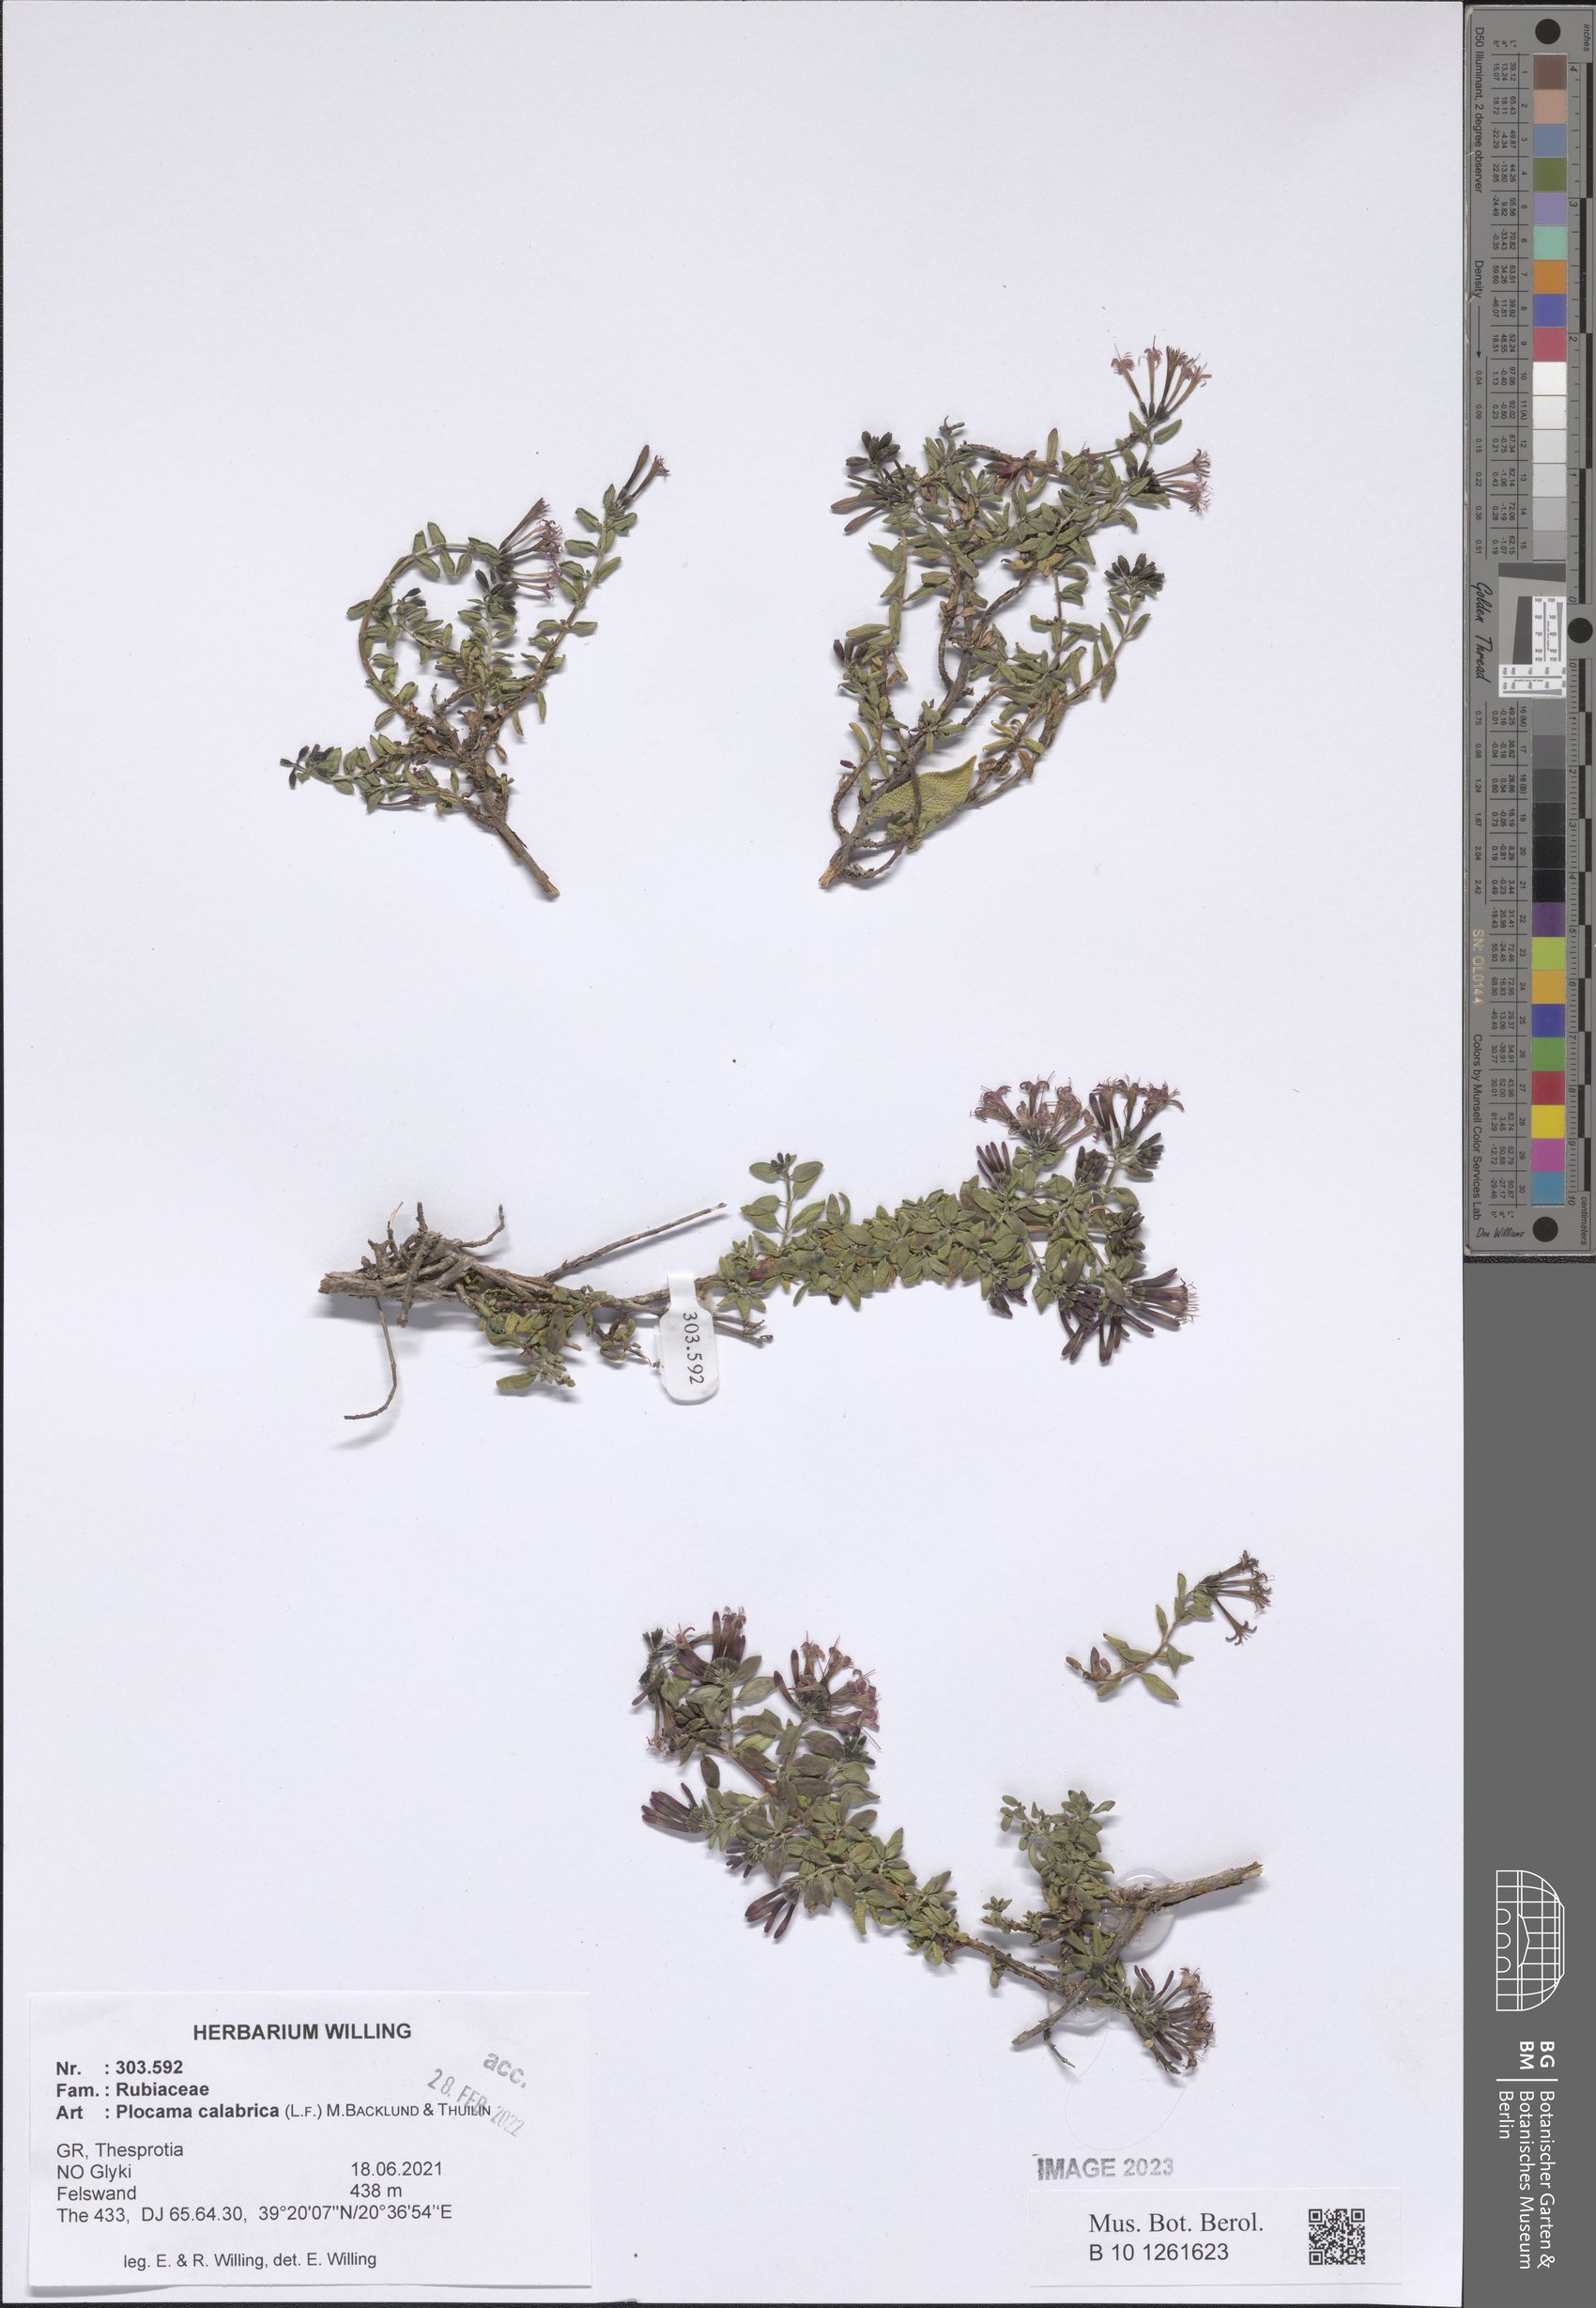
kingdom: Plantae
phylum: Tracheophyta
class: Magnoliopsida
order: Gentianales
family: Rubiaceae
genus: Plocama
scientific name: Plocama calabrica
